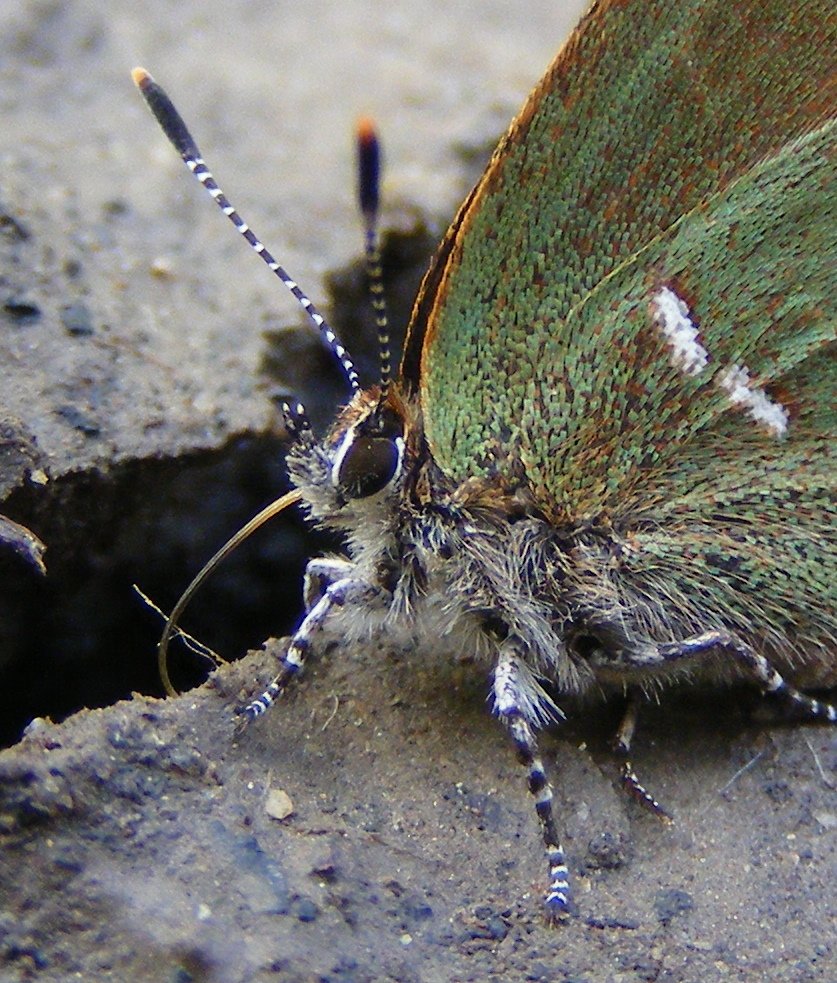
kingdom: Animalia
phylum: Arthropoda
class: Insecta
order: Lepidoptera
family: Lycaenidae
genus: Mitoura
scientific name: Mitoura gryneus
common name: Juniper Hairstreak
